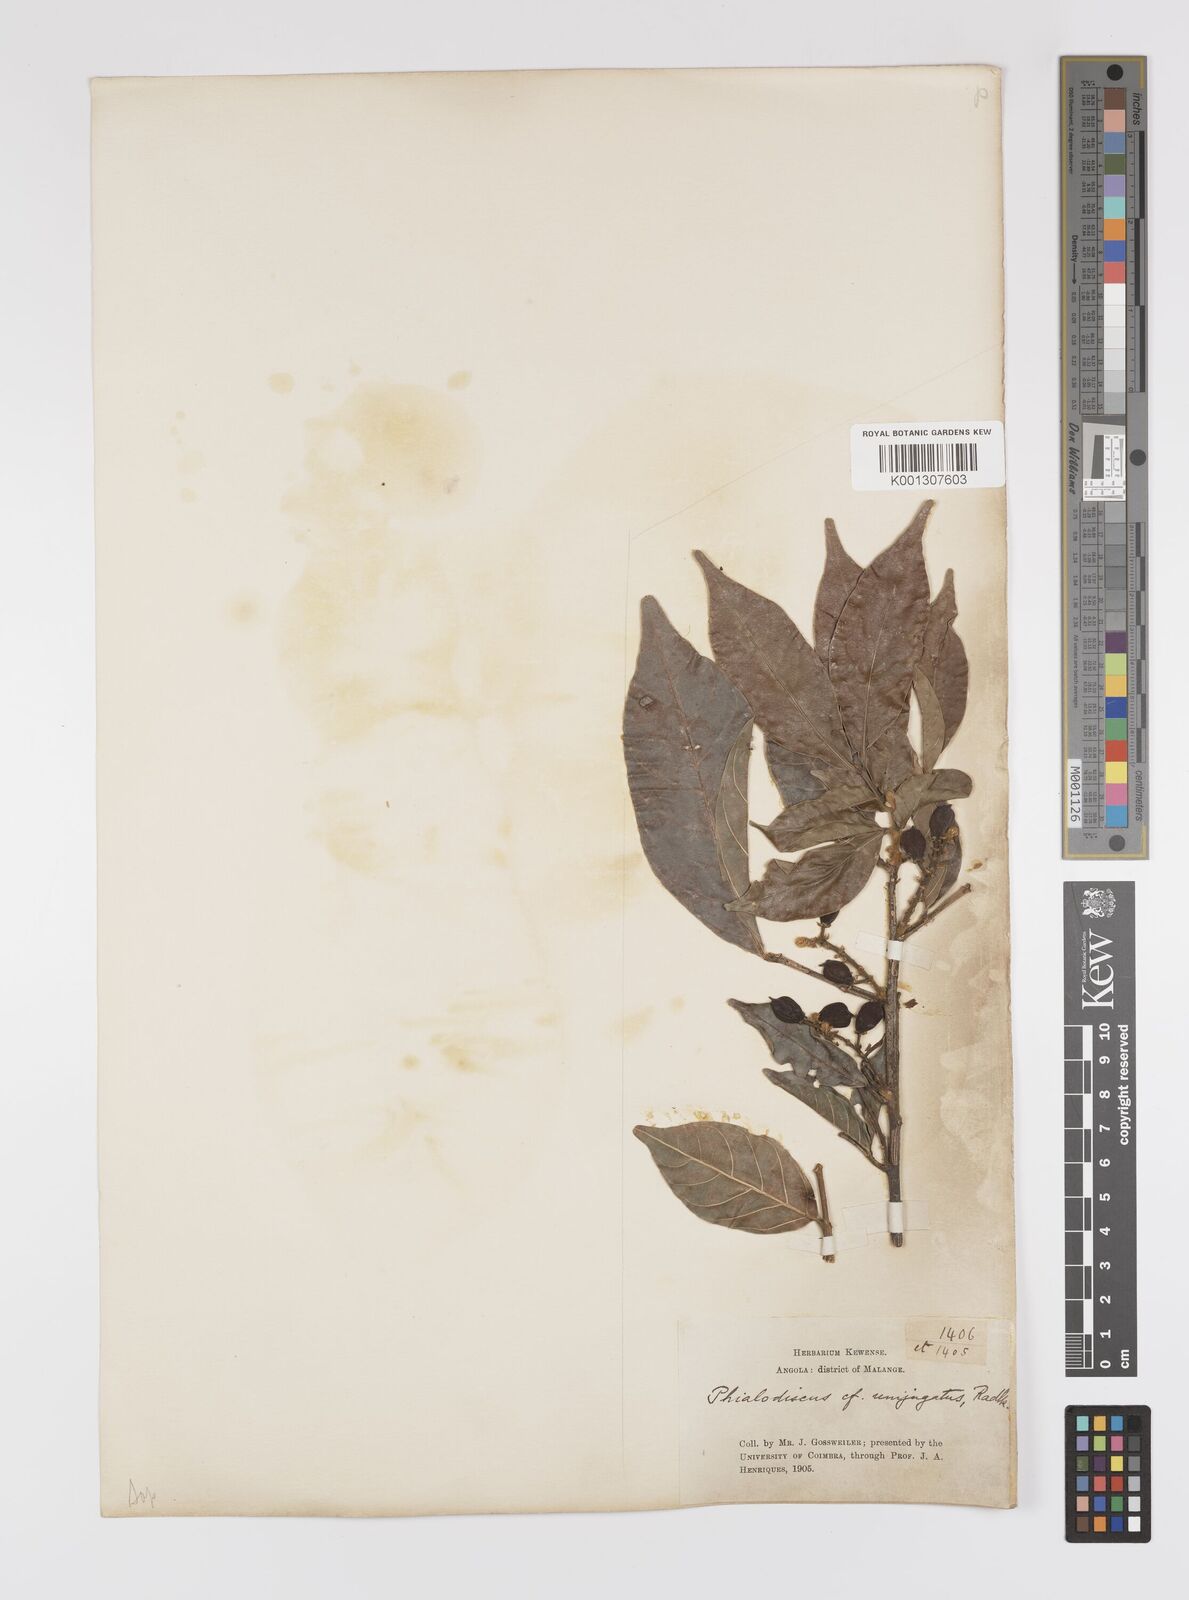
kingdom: Plantae
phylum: Tracheophyta
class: Magnoliopsida
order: Sapindales
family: Sapindaceae
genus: Blighia
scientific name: Blighia unijugata
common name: Triangle tops
